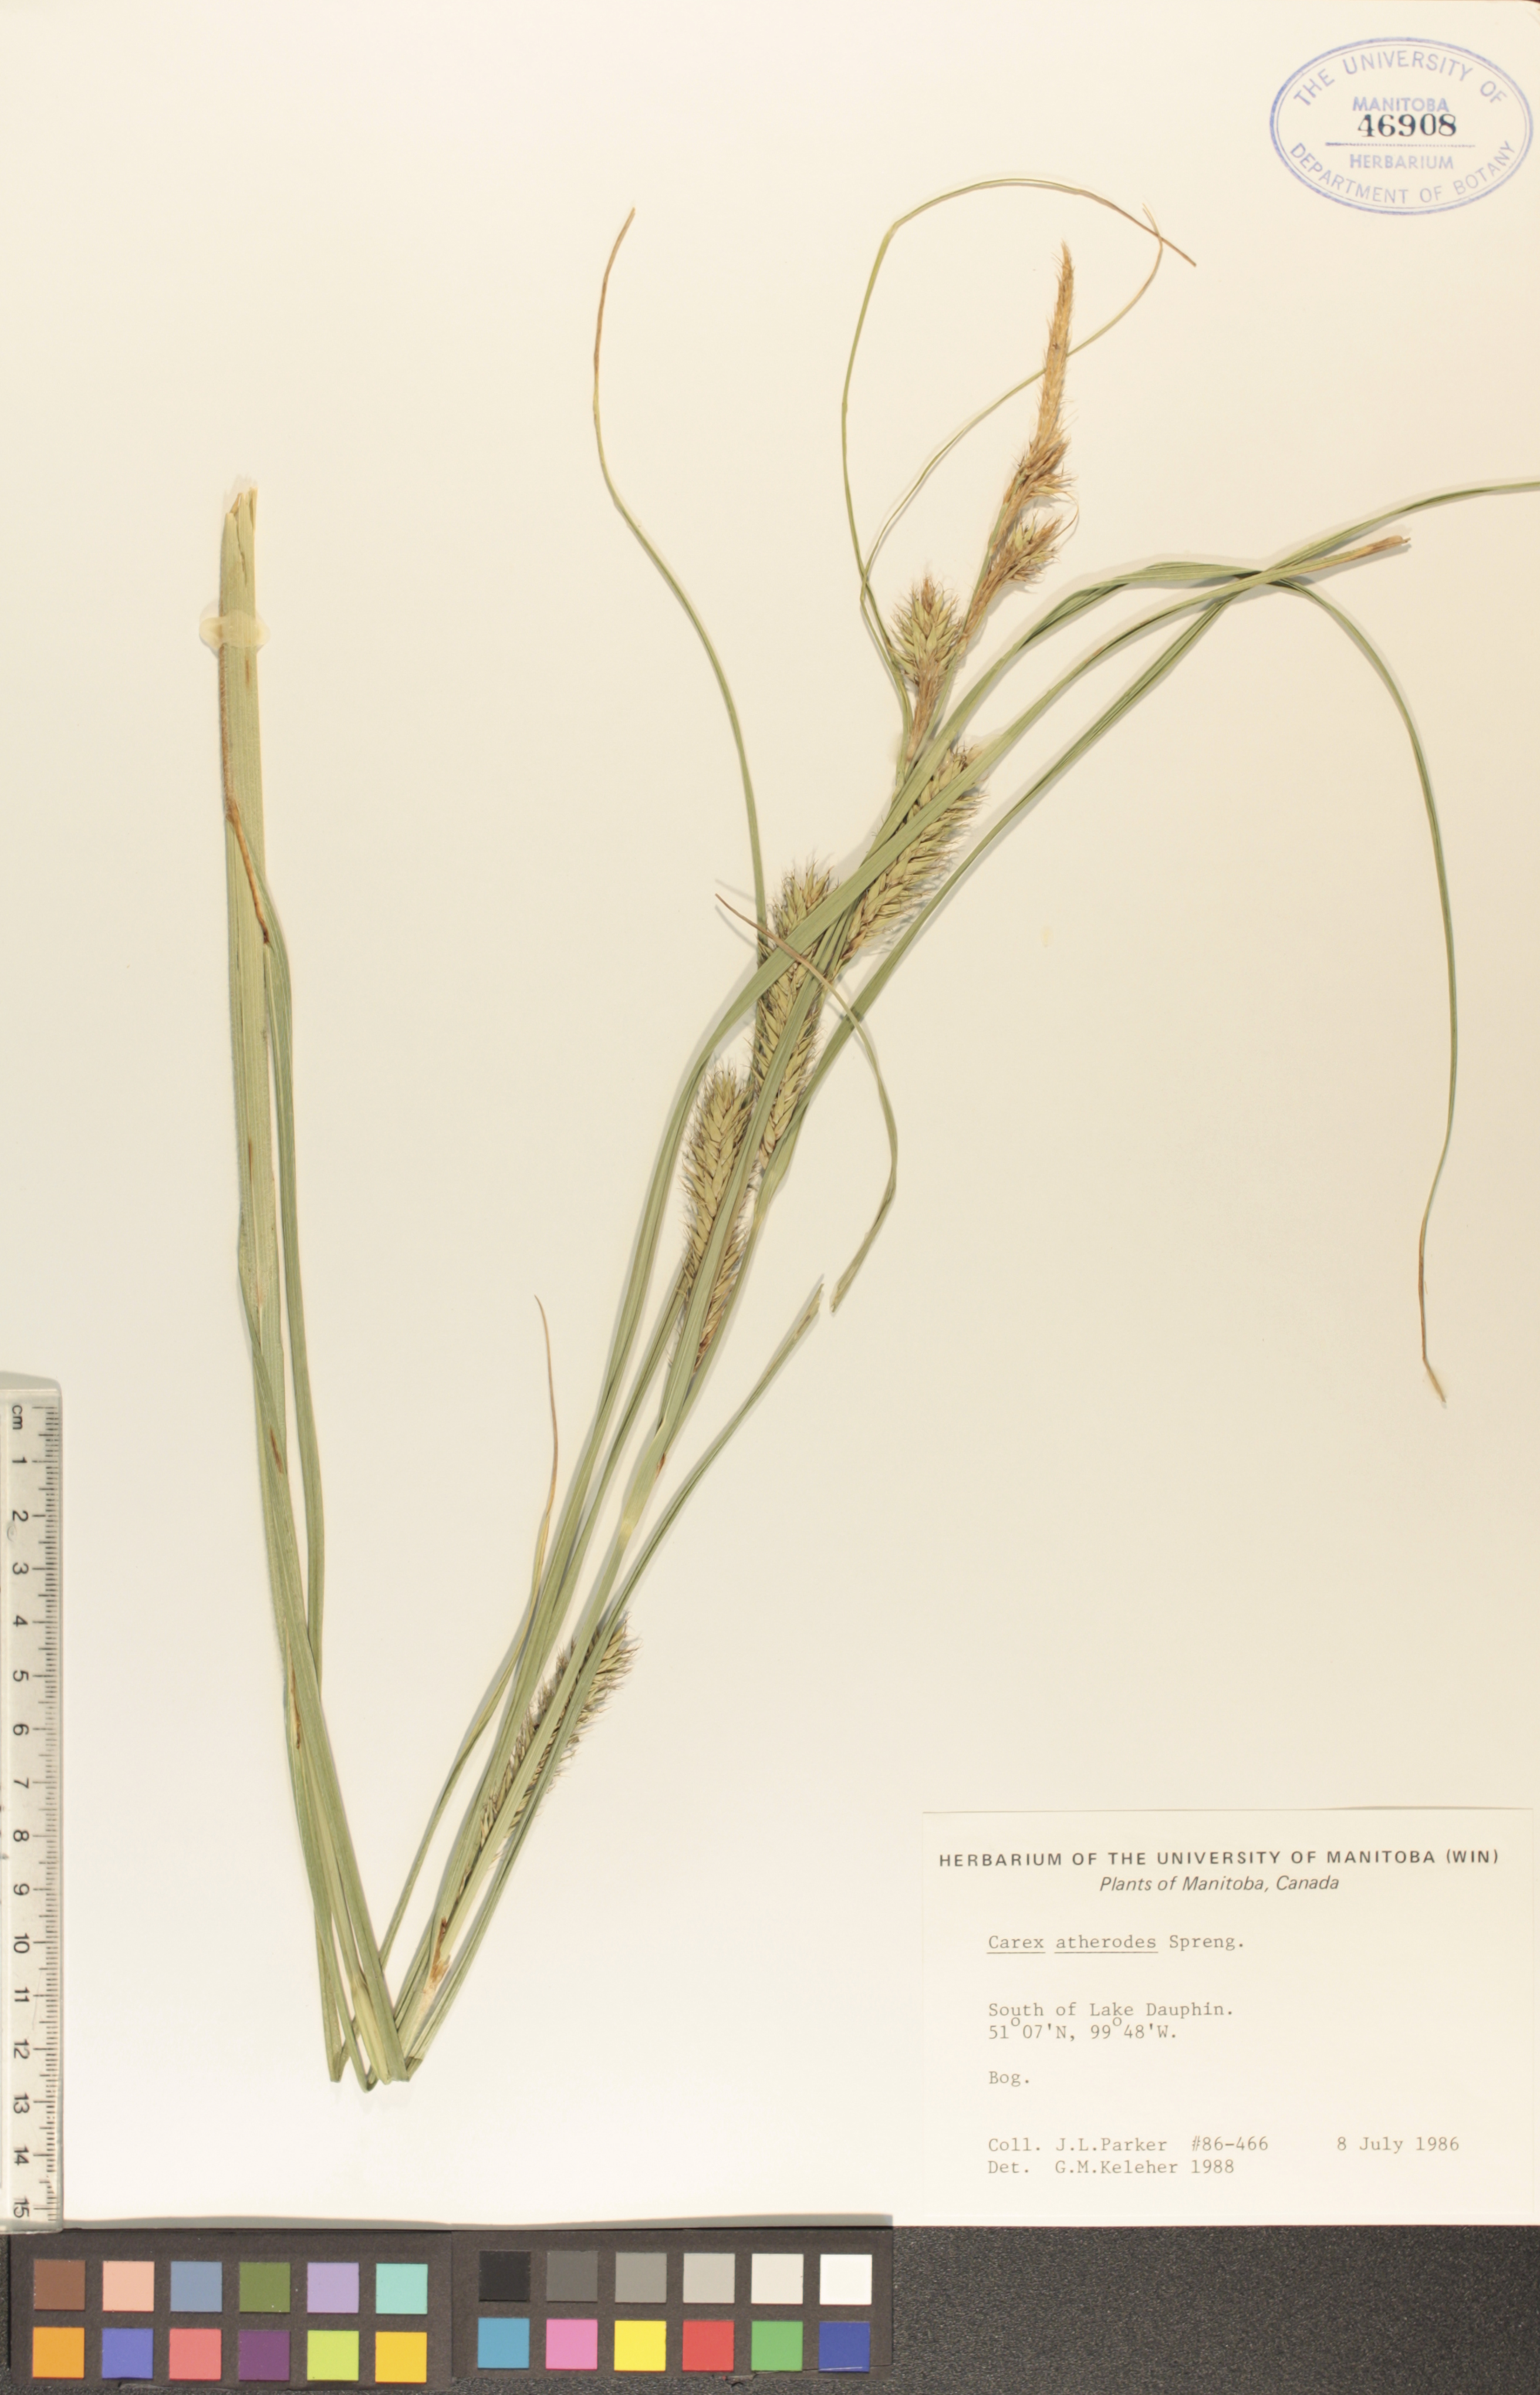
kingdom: Plantae
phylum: Tracheophyta
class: Liliopsida
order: Poales
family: Cyperaceae
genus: Carex
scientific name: Carex atherodes
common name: Wheat sedge
